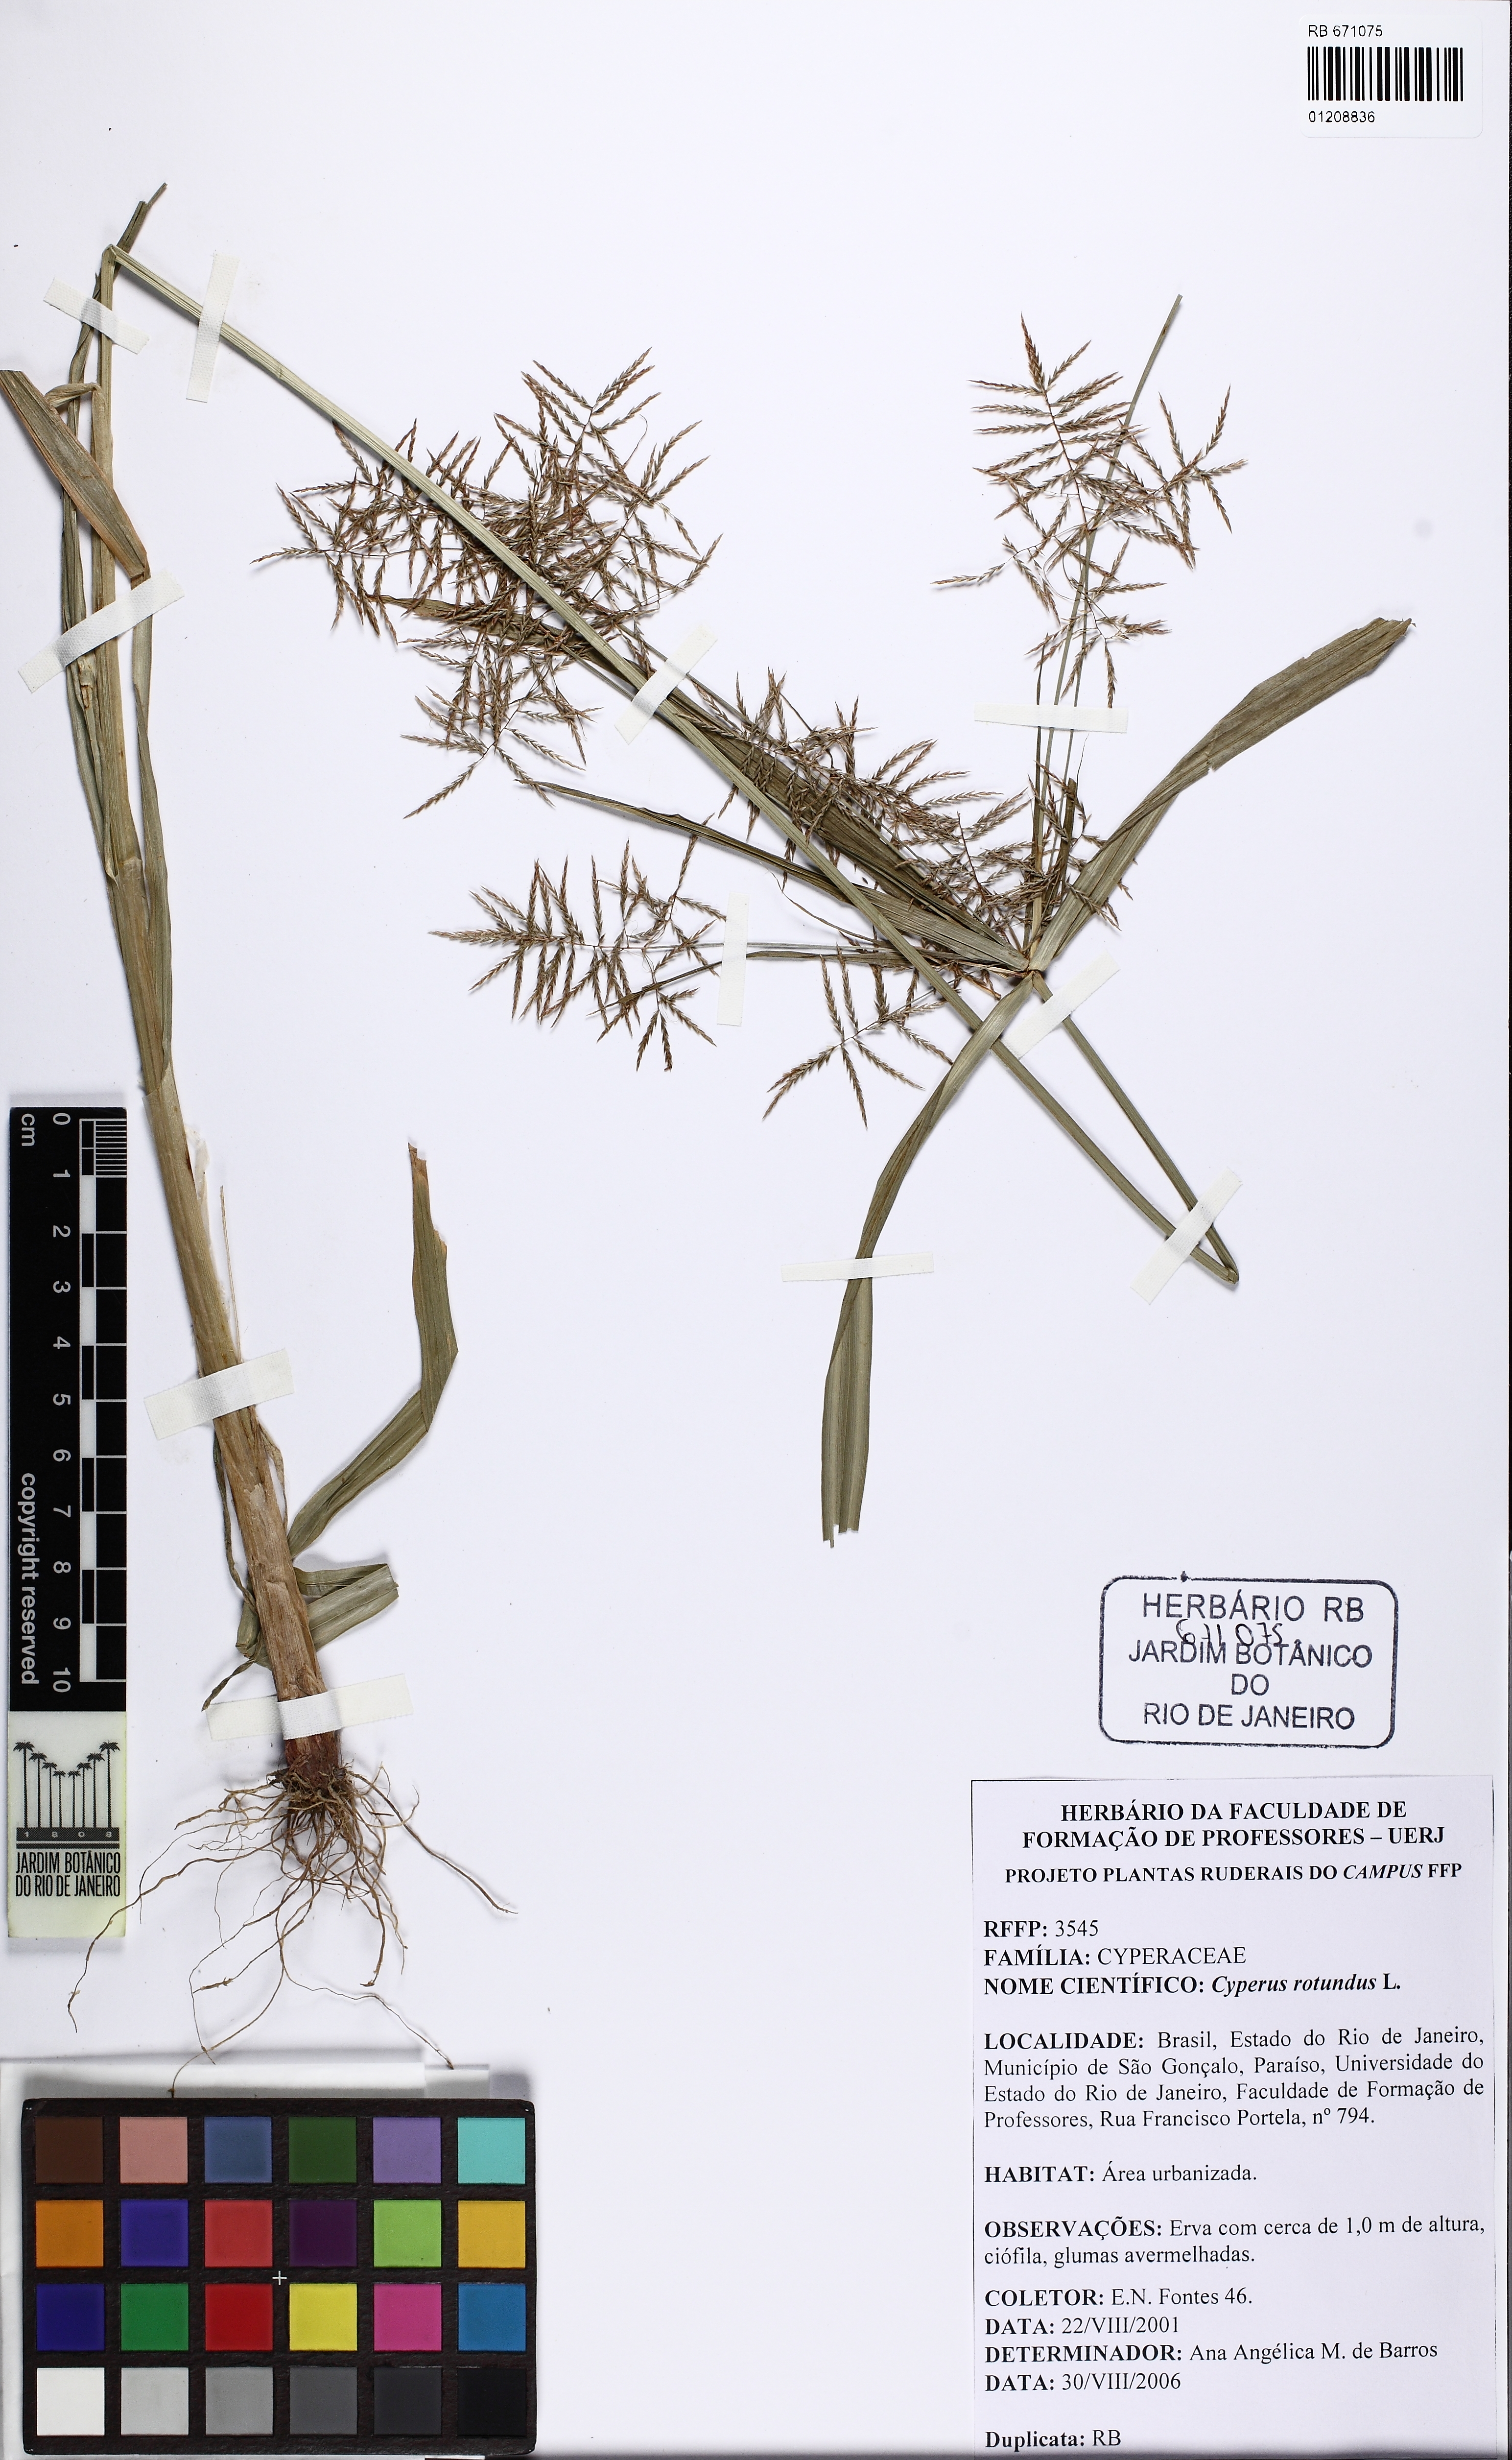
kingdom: Plantae
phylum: Tracheophyta
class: Liliopsida
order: Poales
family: Cyperaceae
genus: Cyperus
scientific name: Cyperus distans
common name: Slender cyperus
